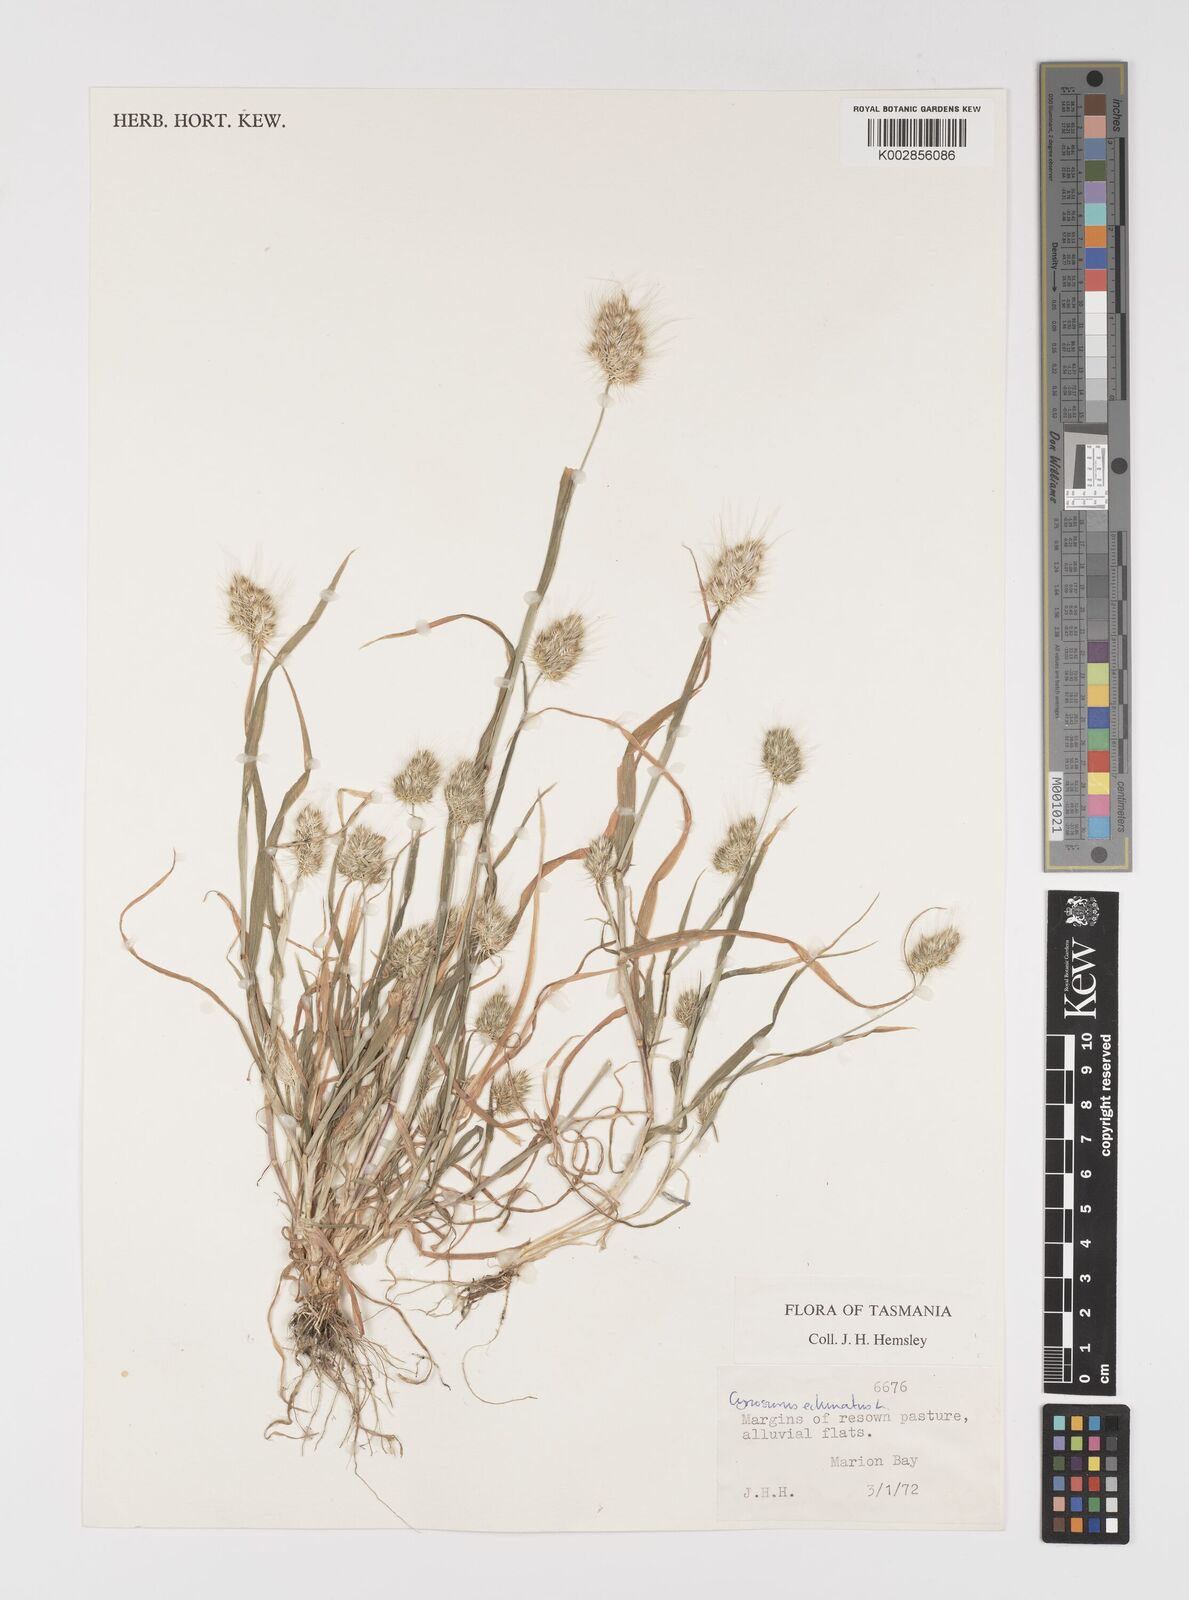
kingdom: Plantae
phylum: Tracheophyta
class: Liliopsida
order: Poales
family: Poaceae
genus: Cynosurus
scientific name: Cynosurus echinatus
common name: Rough dog's-tail
